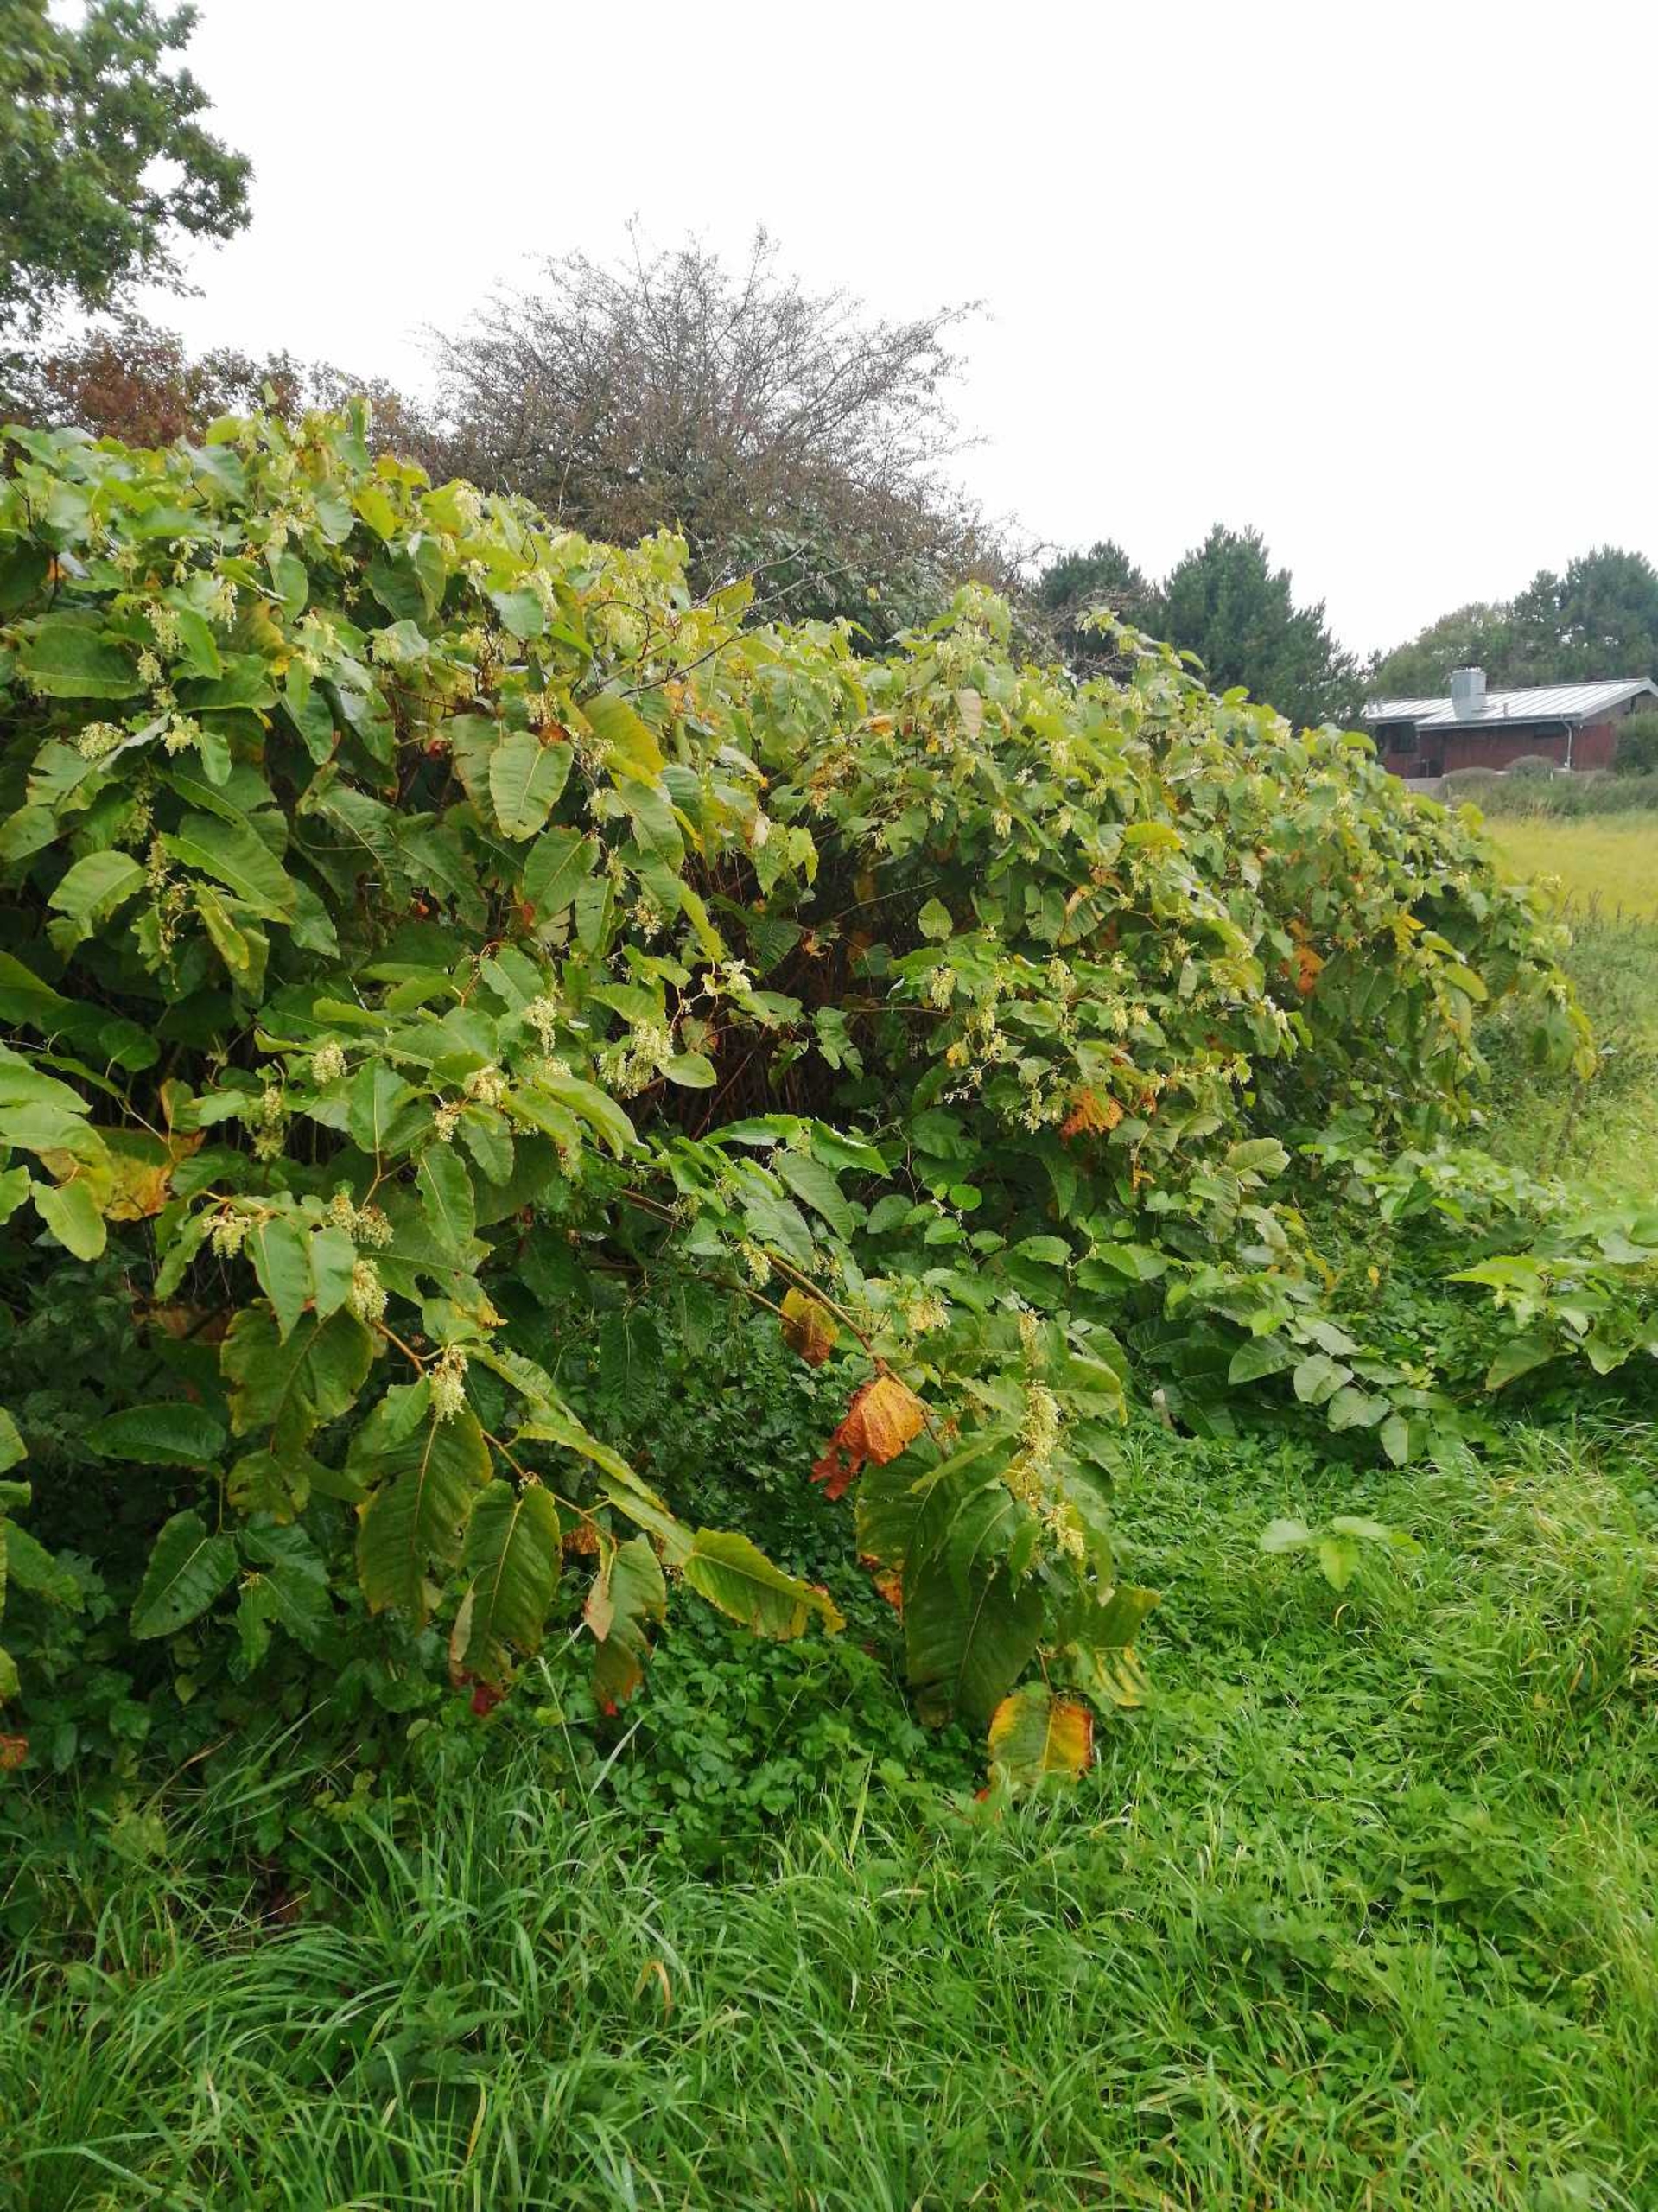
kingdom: Plantae
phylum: Tracheophyta
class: Magnoliopsida
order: Caryophyllales
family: Polygonaceae
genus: Reynoutria
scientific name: Reynoutria sachalinensis
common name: Kæmpe-pileurt
